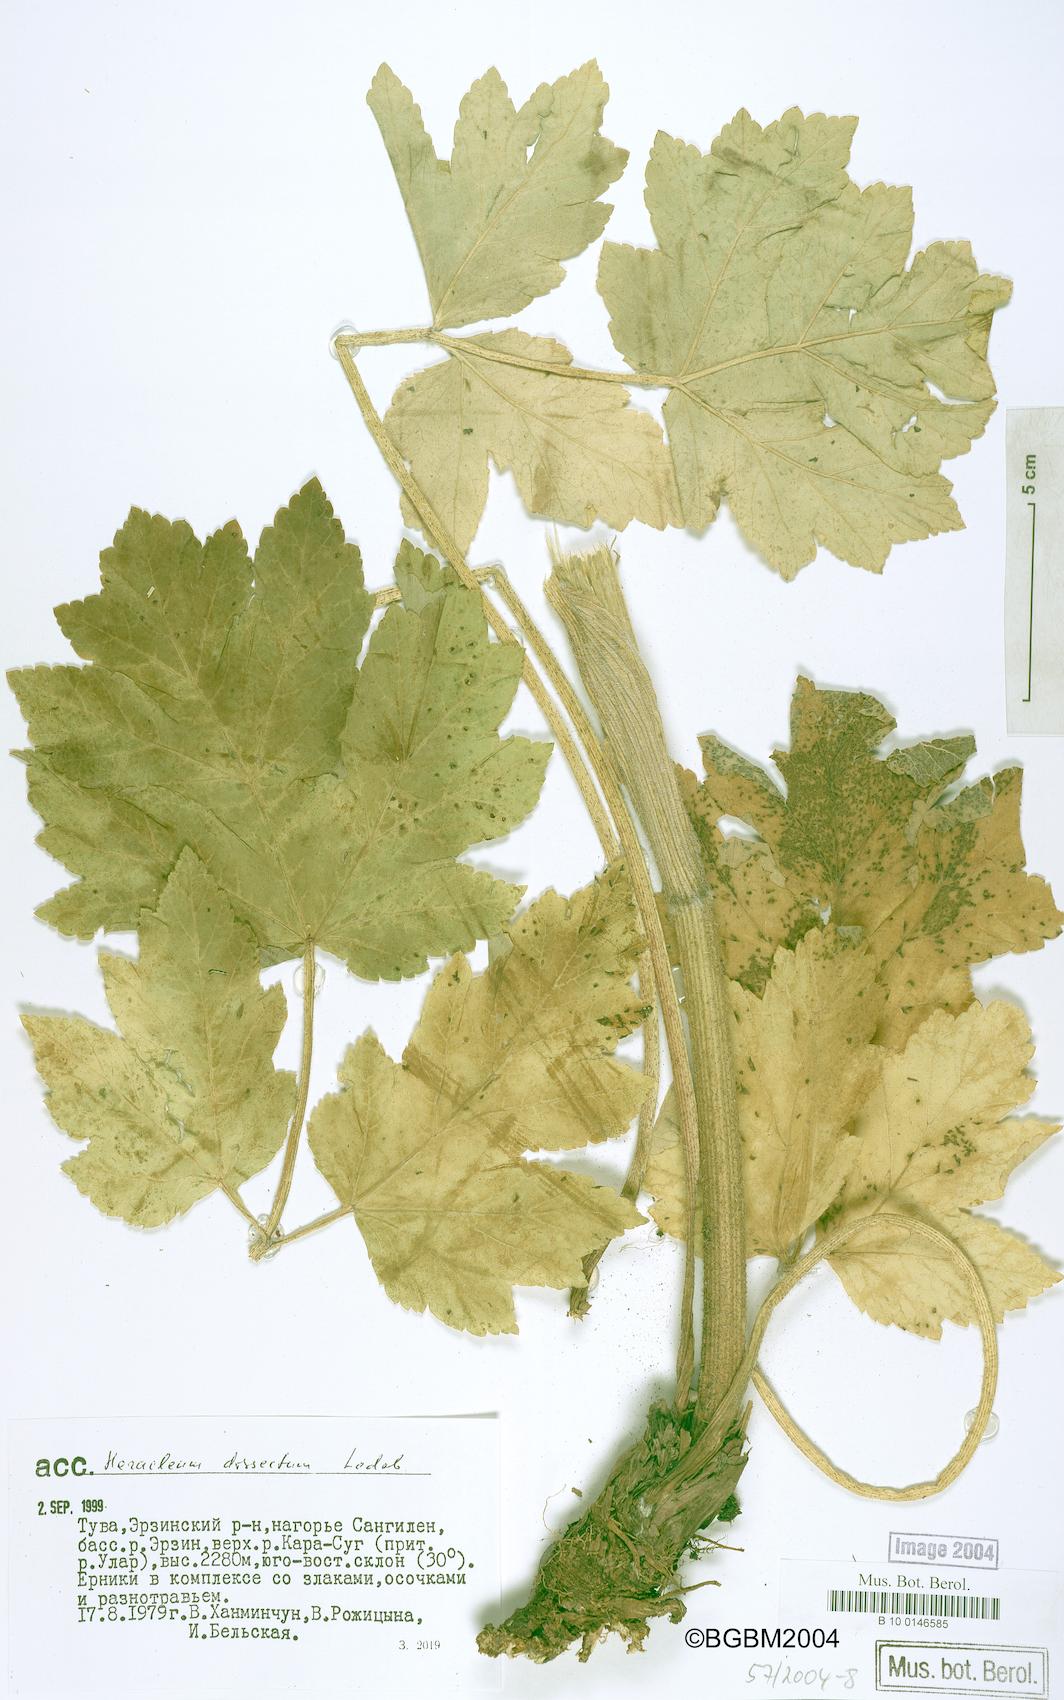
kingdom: Plantae
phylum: Tracheophyta
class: Magnoliopsida
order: Apiales
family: Apiaceae
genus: Heracleum
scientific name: Heracleum dissectum
